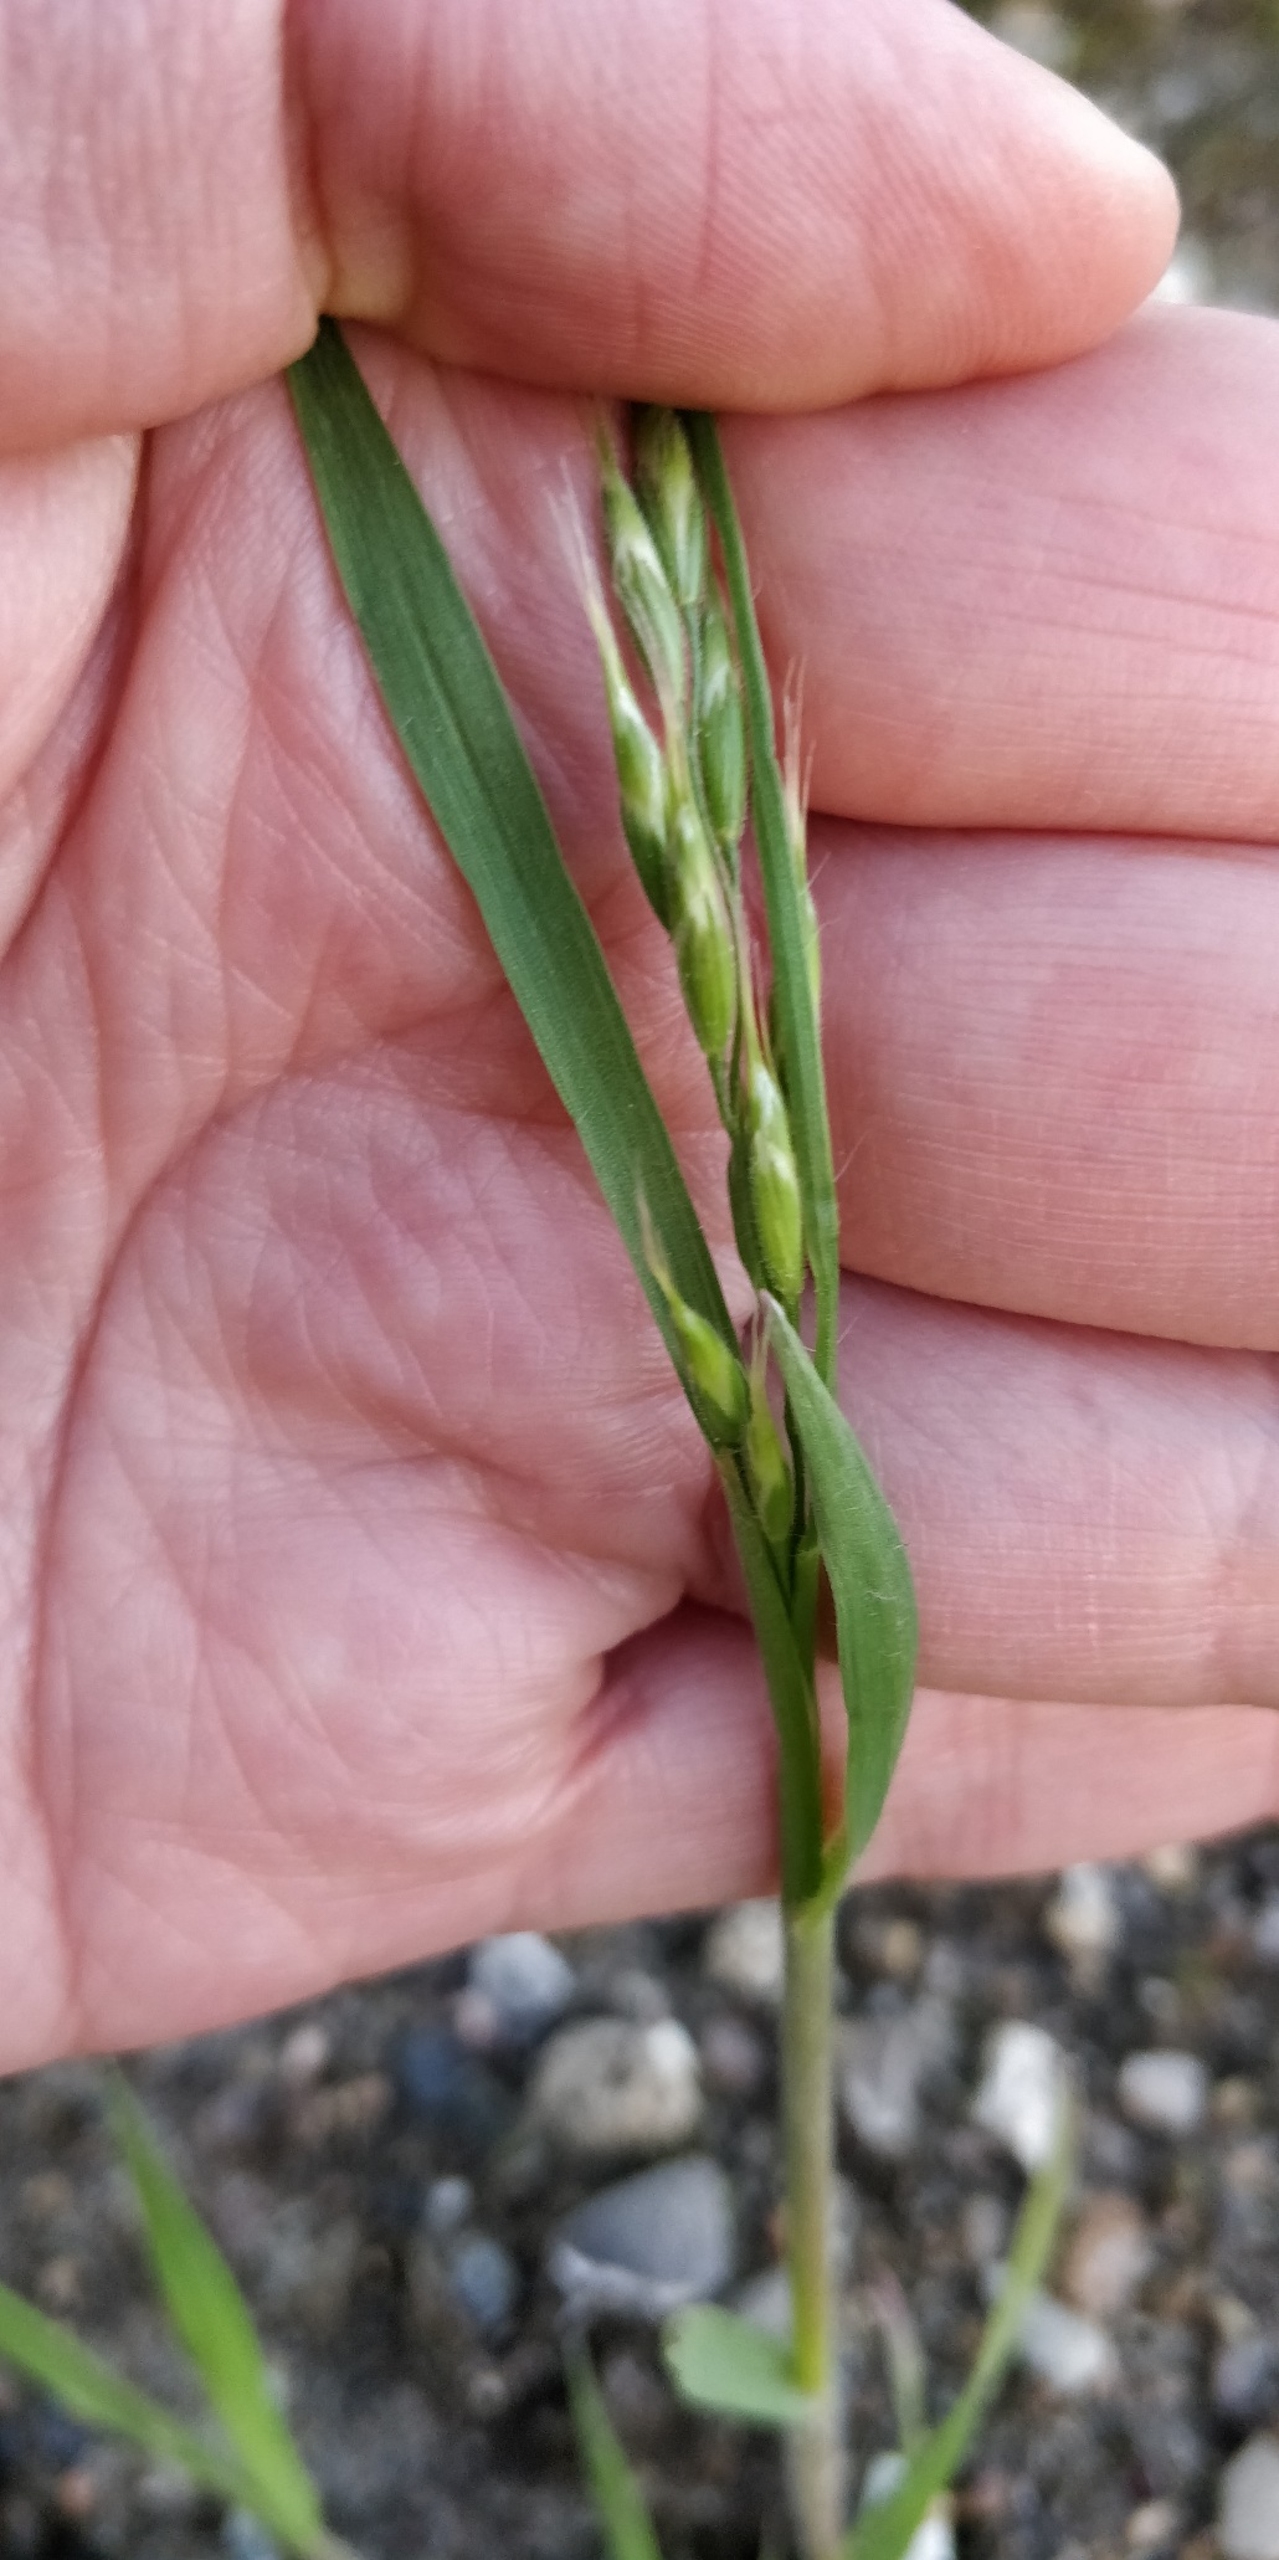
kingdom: Plantae
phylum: Tracheophyta
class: Liliopsida
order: Poales
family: Poaceae
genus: Bromus
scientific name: Bromus hordeaceus
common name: Blød hejre
